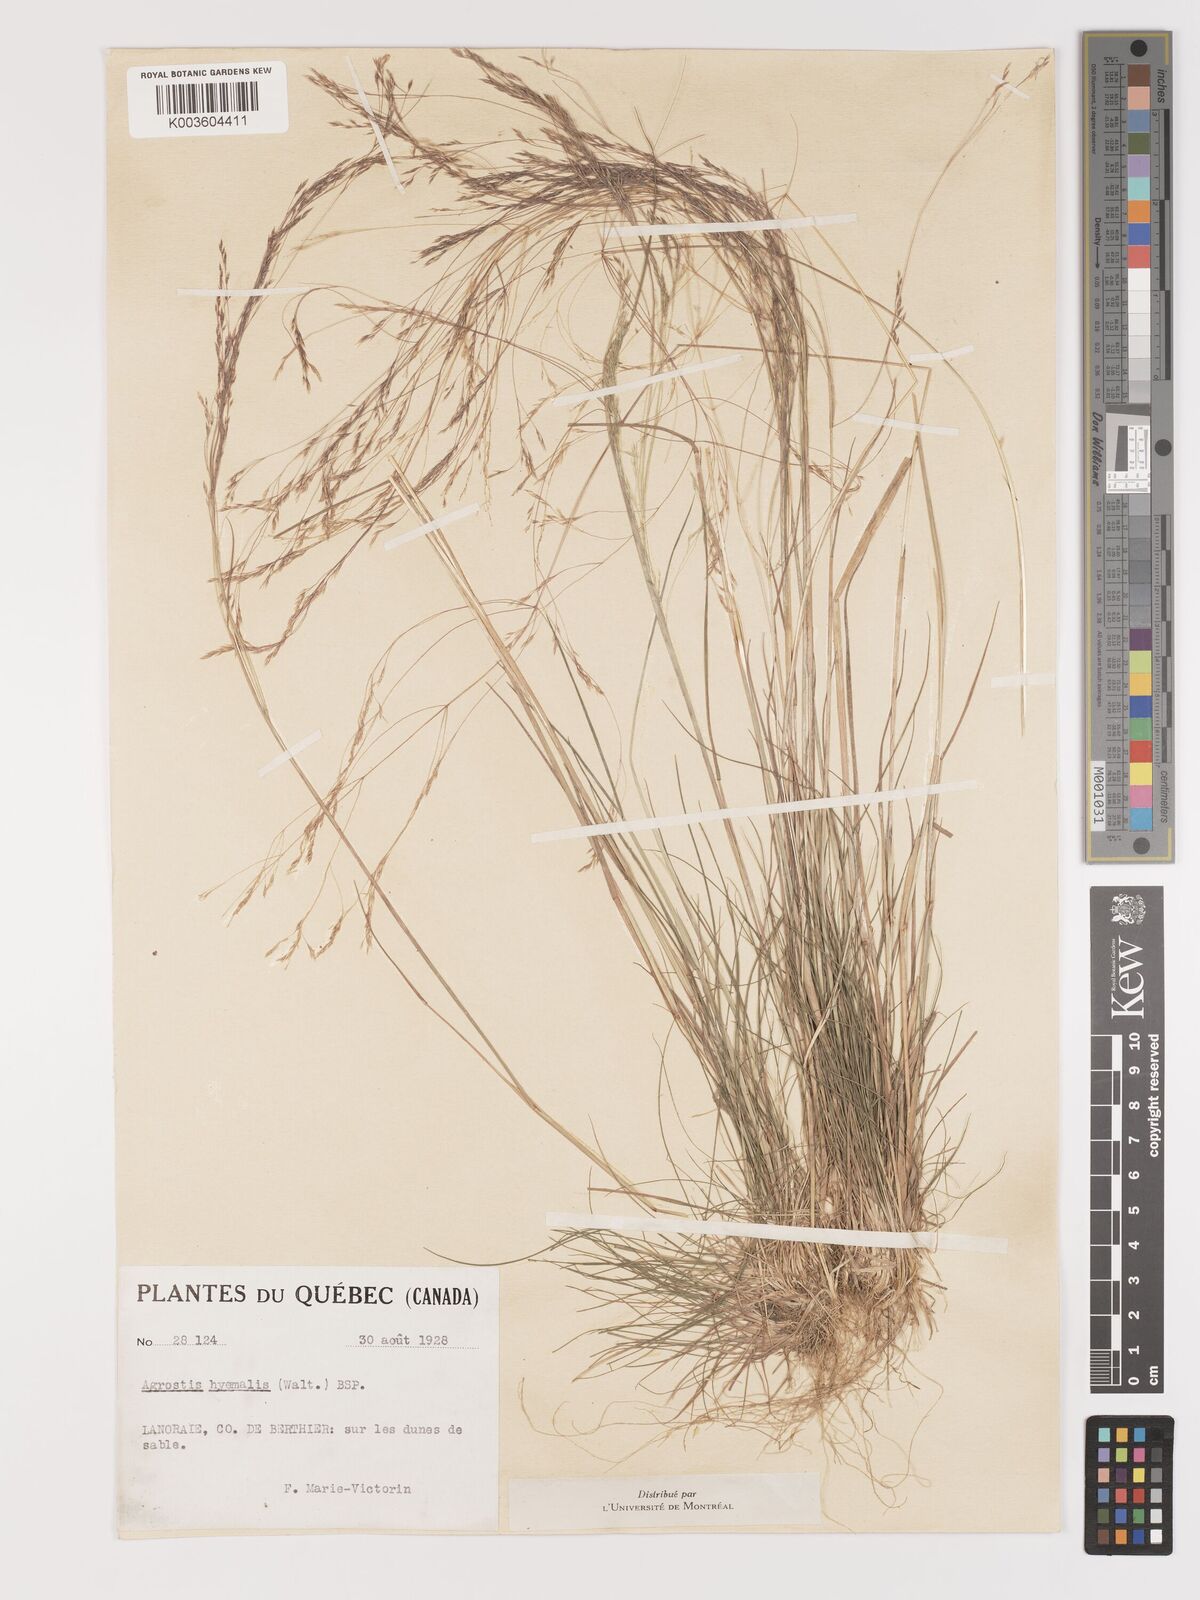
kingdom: Plantae
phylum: Tracheophyta
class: Liliopsida
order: Poales
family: Poaceae
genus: Agrostis
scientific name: Agrostis hyemalis
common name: Small bent
